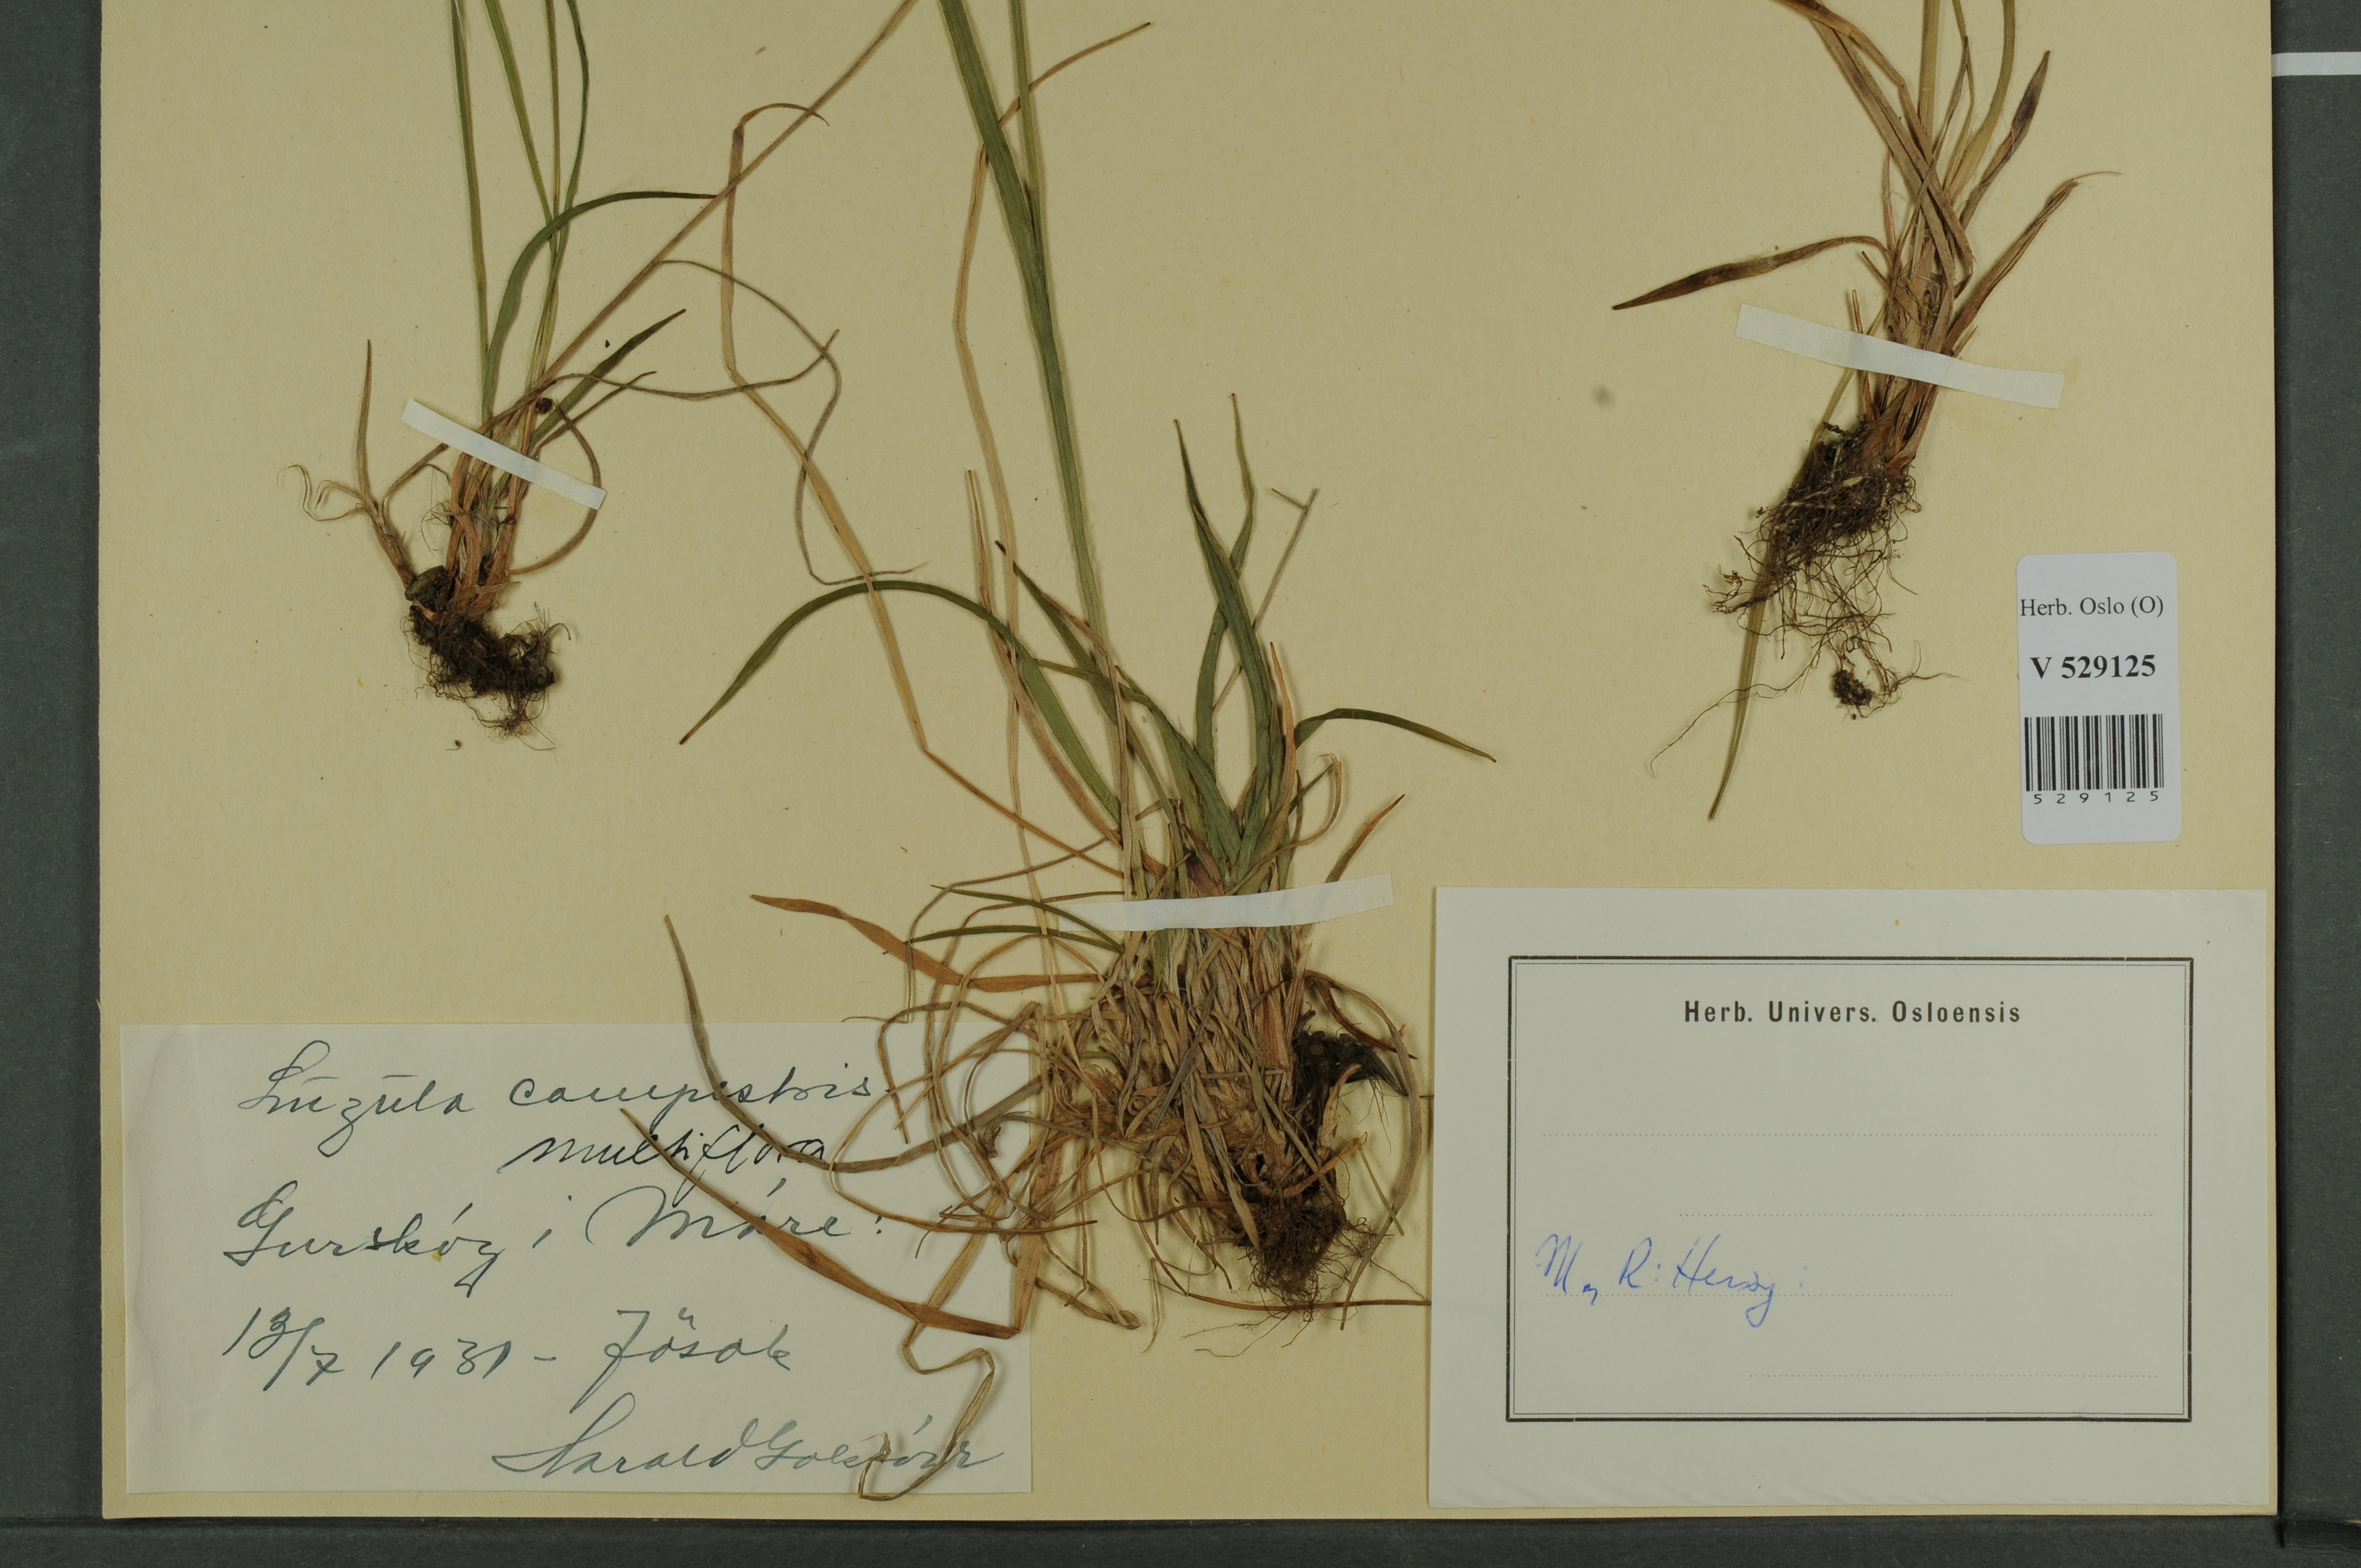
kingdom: Plantae
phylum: Tracheophyta
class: Liliopsida
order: Poales
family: Juncaceae
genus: Luzula
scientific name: Luzula multiflora
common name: Heath wood-rush
